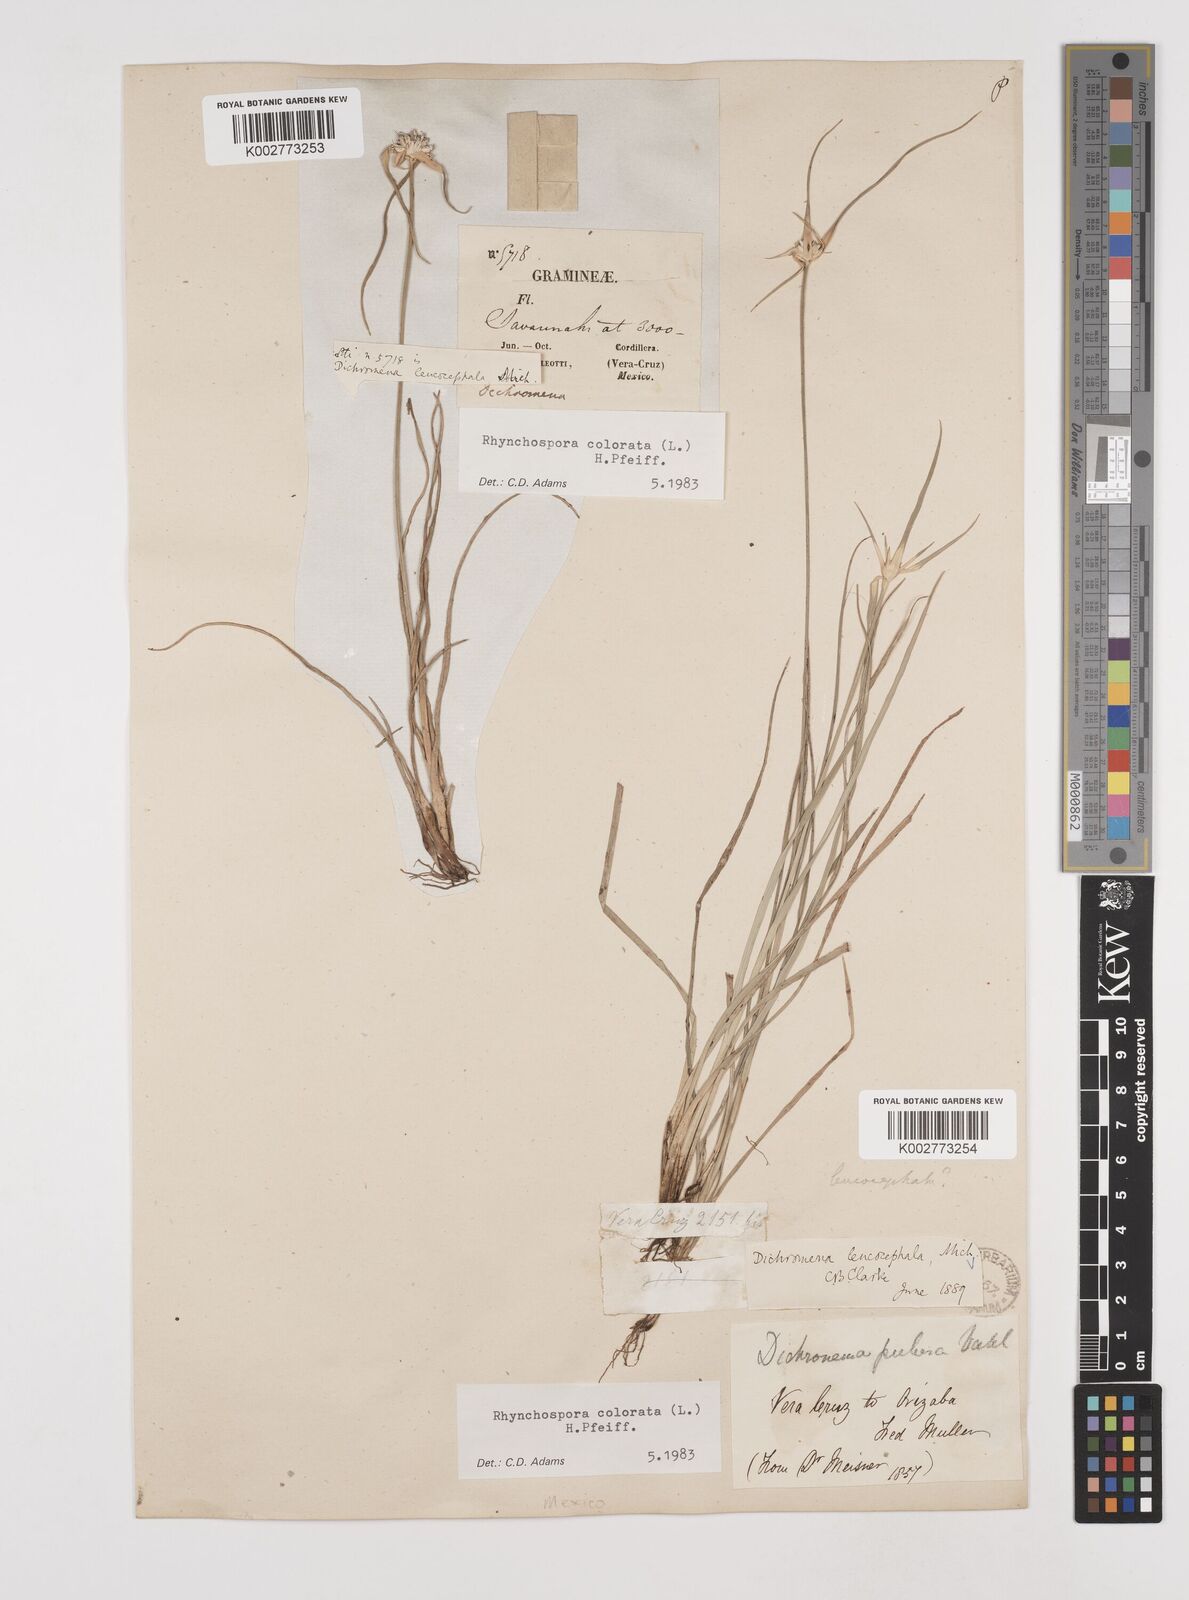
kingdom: Plantae
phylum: Tracheophyta
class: Liliopsida
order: Poales
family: Cyperaceae
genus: Rhynchospora
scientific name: Rhynchospora colorata
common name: Star sedge
